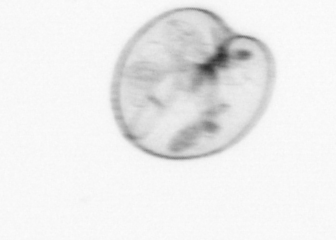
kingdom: Chromista
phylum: Myzozoa
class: Dinophyceae
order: Noctilucales
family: Noctilucaceae
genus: Noctiluca
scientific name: Noctiluca scintillans
